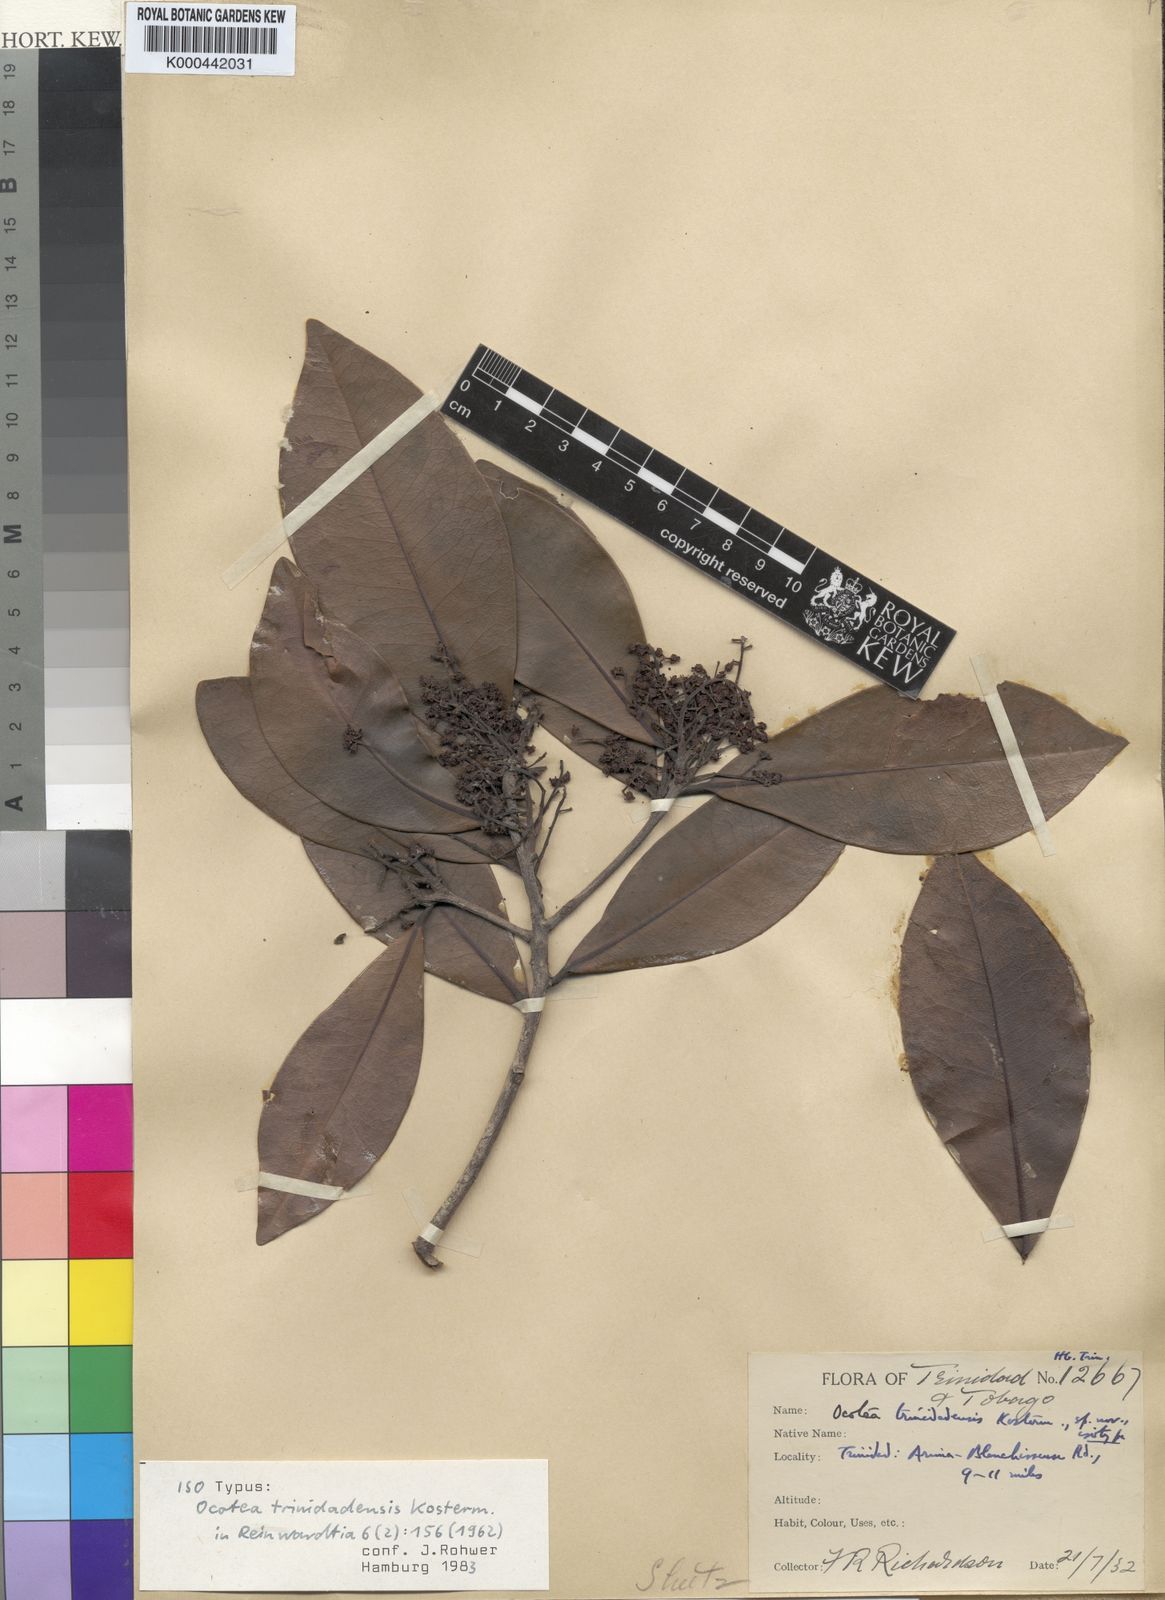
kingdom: Plantae
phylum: Tracheophyta
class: Magnoliopsida
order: Laurales
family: Lauraceae
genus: Ocotea
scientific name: Ocotea trinidadensis
